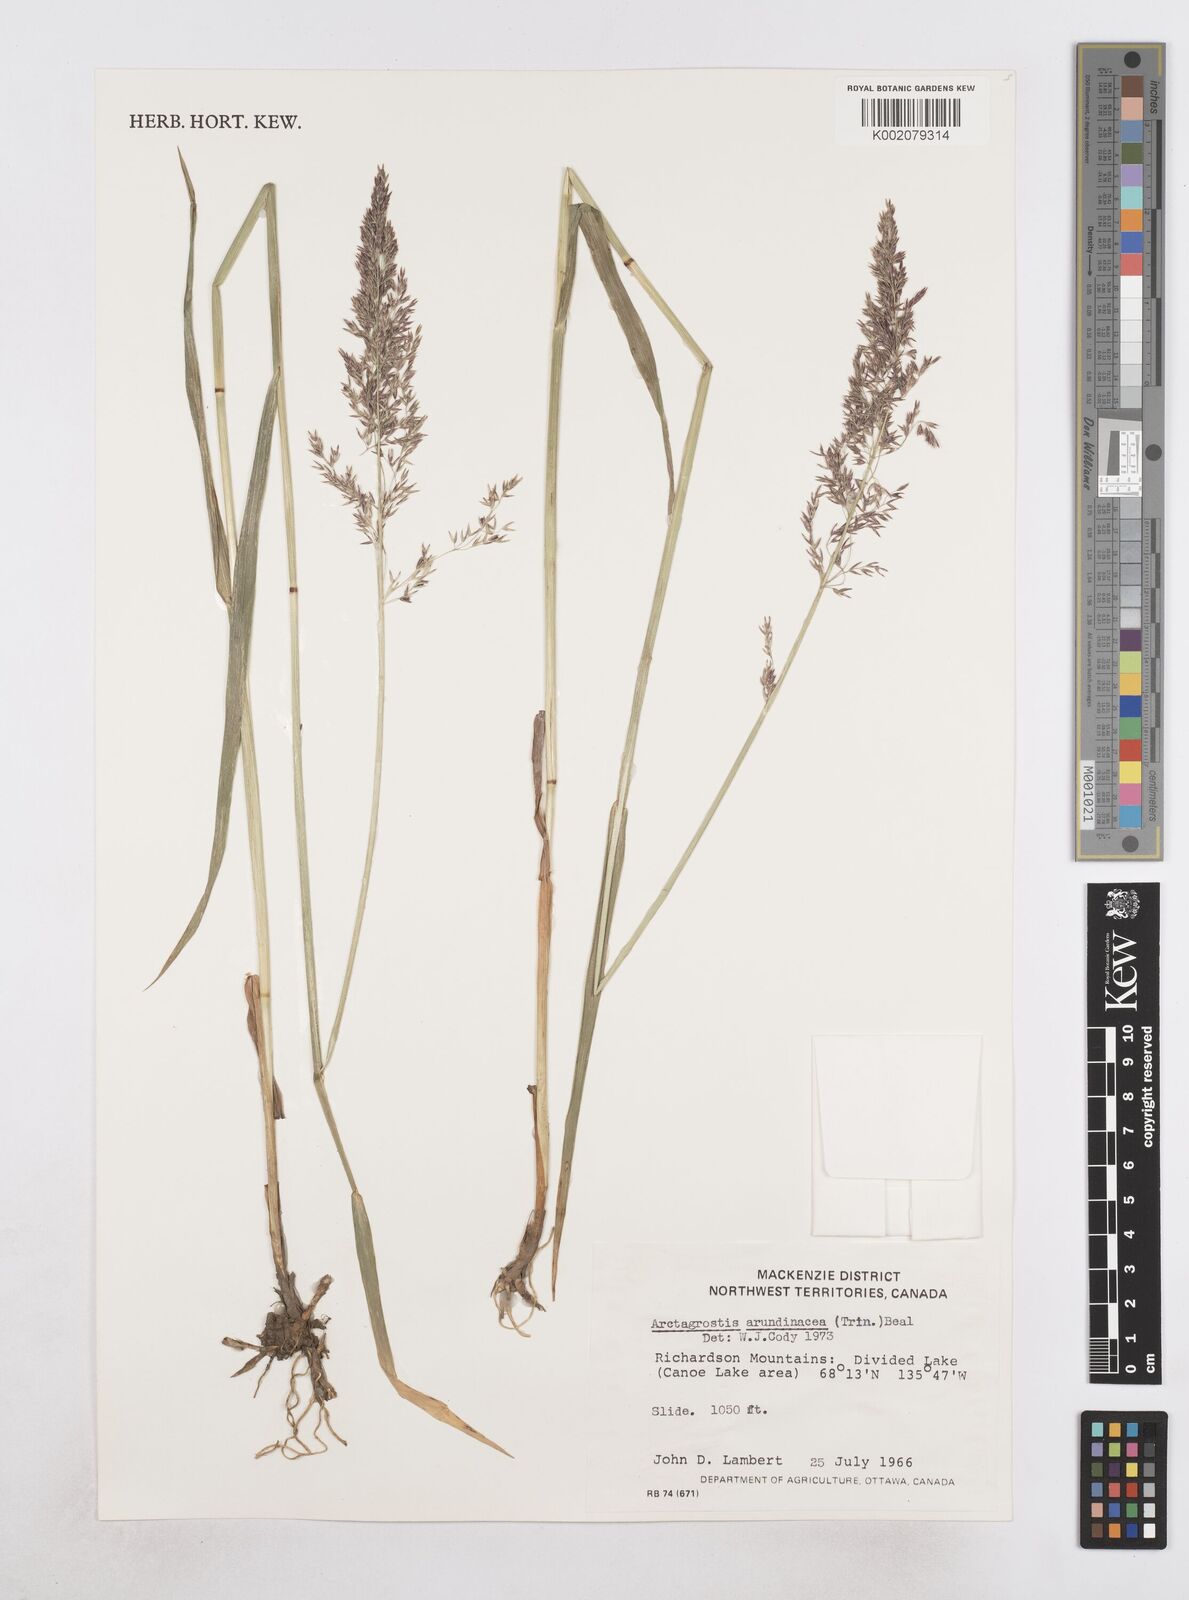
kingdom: Plantae
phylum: Tracheophyta
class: Liliopsida
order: Poales
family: Poaceae
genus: Arctagrostis
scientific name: Arctagrostis arundinacea
